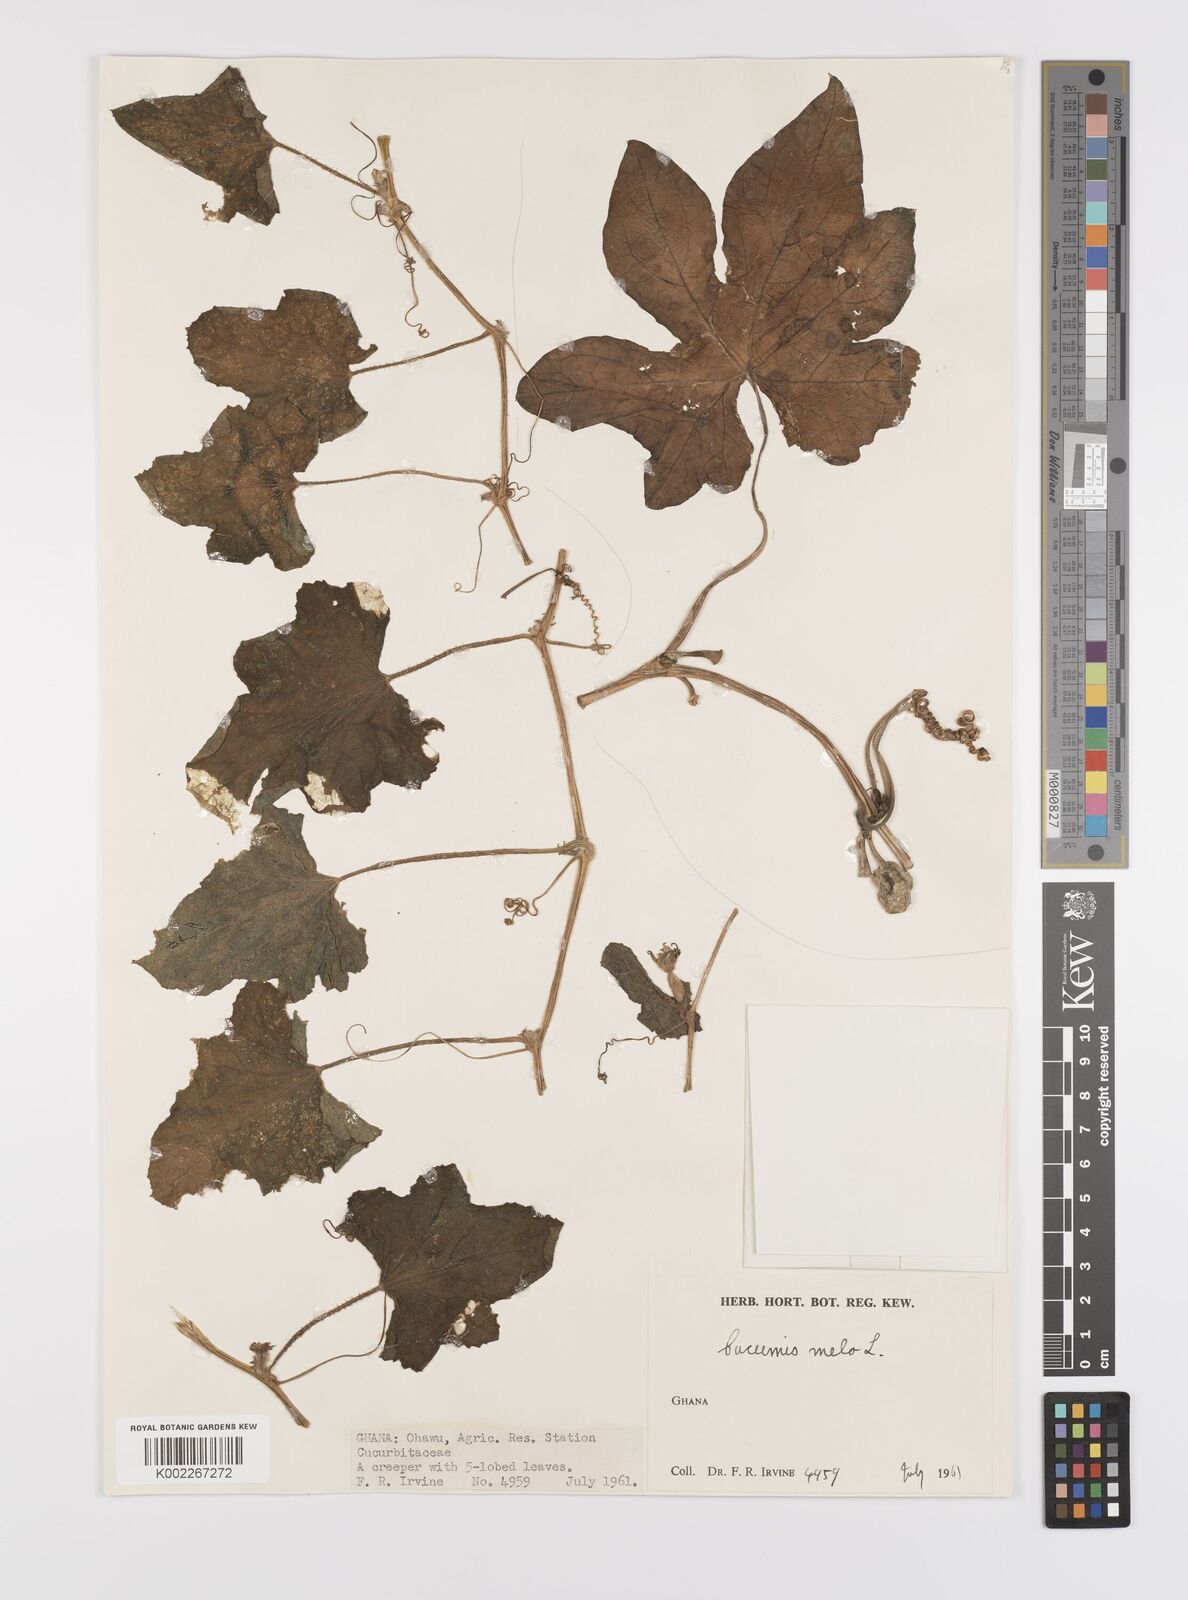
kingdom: Plantae
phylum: Tracheophyta
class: Magnoliopsida
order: Cucurbitales
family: Cucurbitaceae
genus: Cucumis
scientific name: Cucumis
